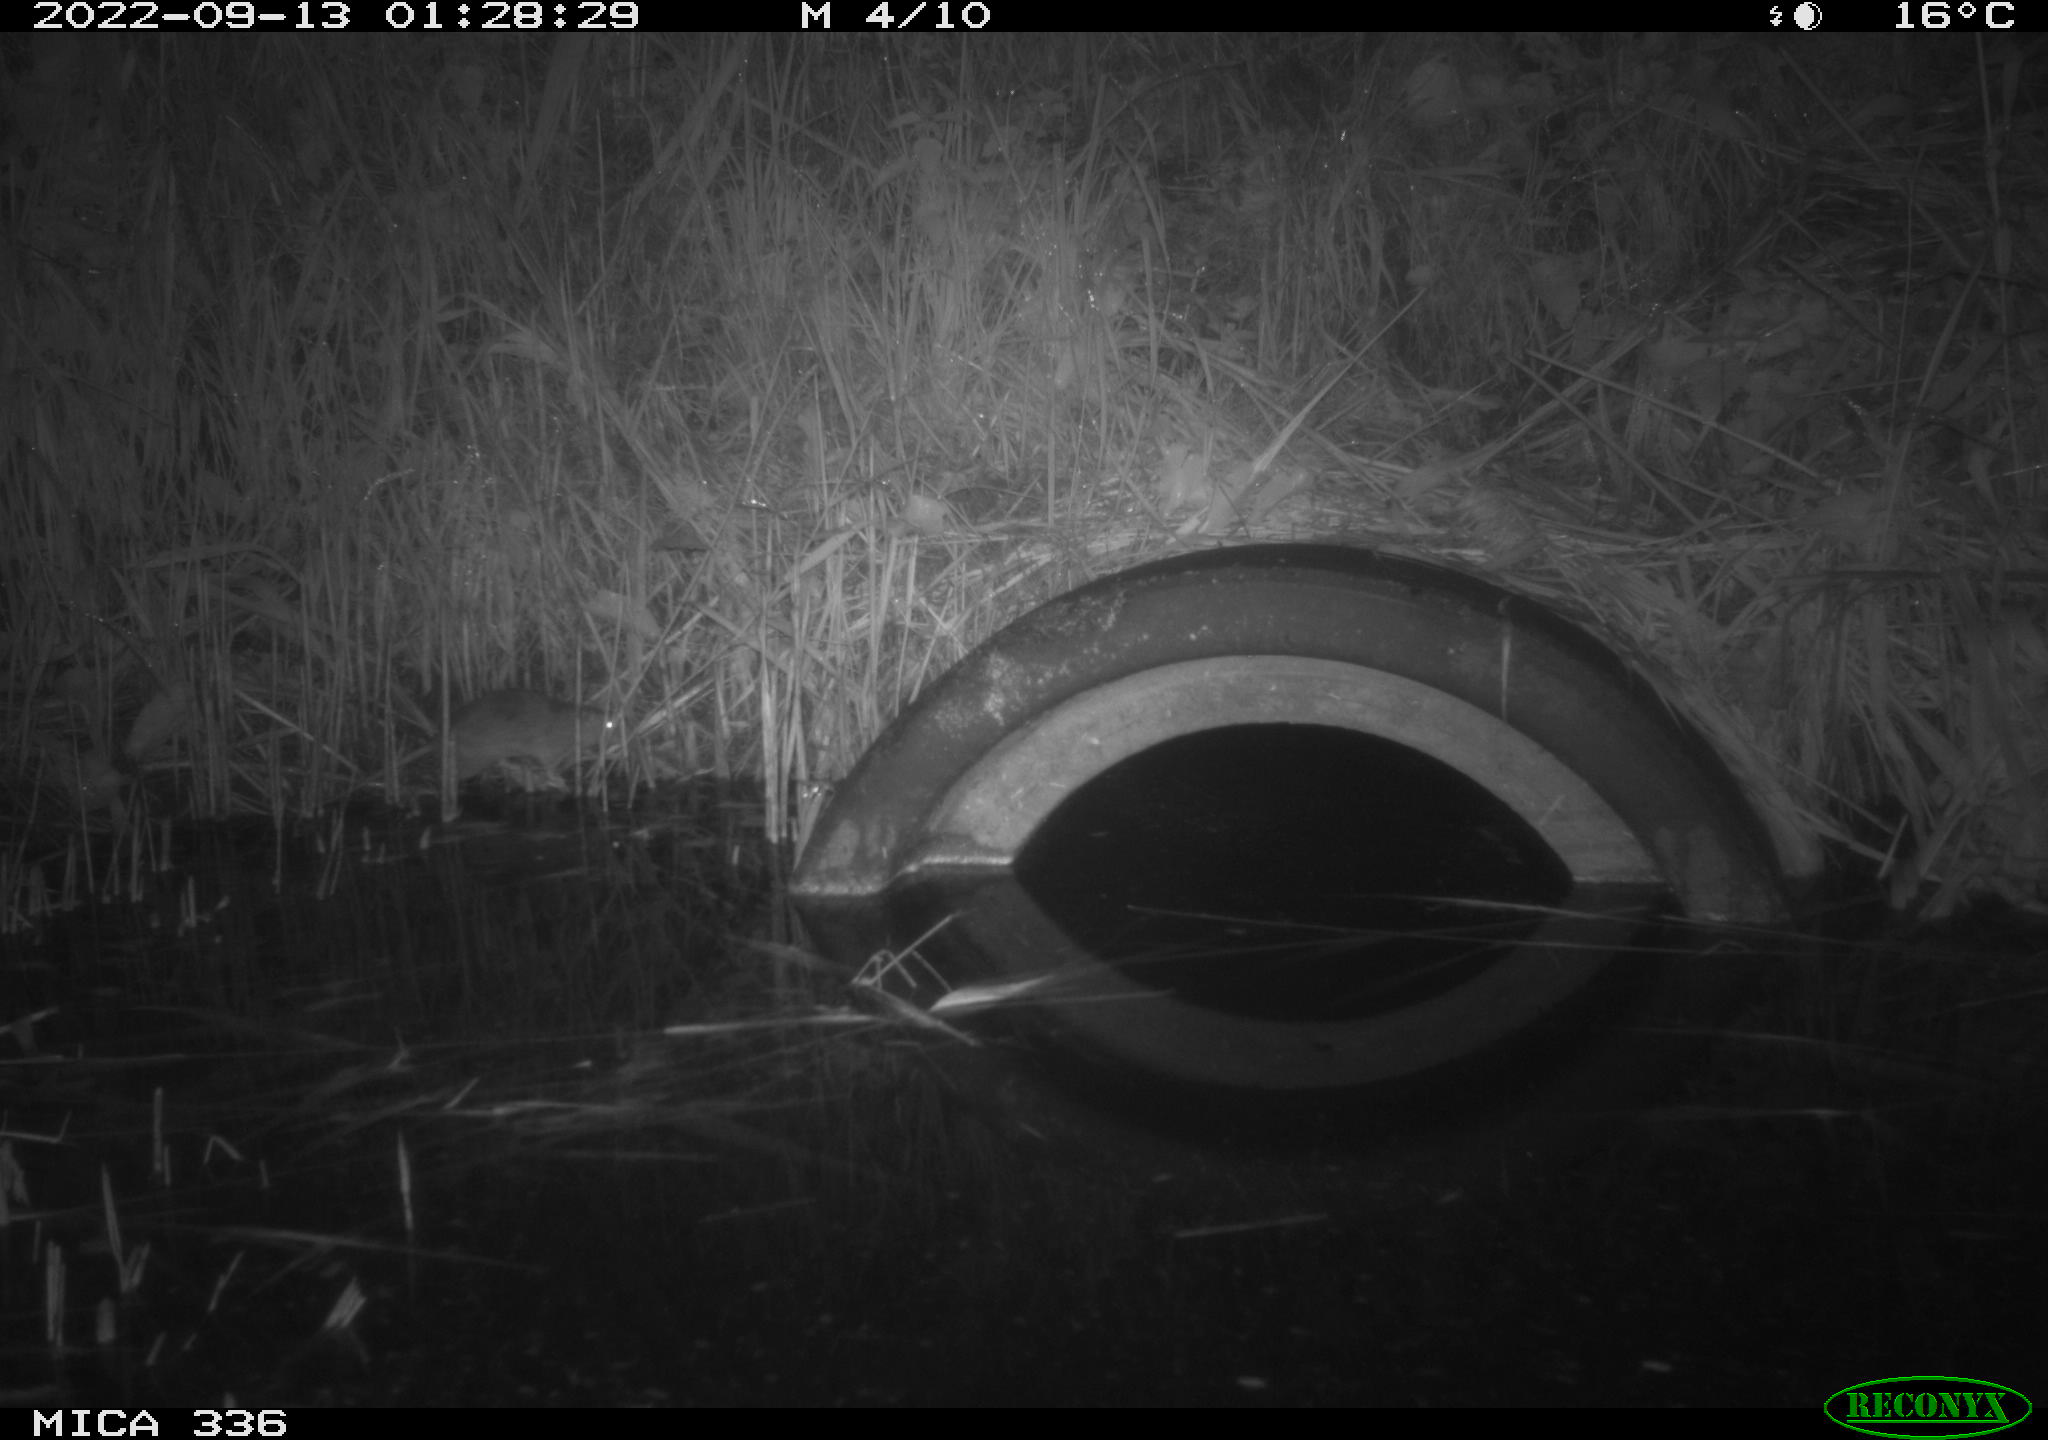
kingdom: Animalia
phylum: Chordata
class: Mammalia
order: Rodentia
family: Muridae
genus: Rattus
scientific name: Rattus norvegicus
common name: Brown rat
